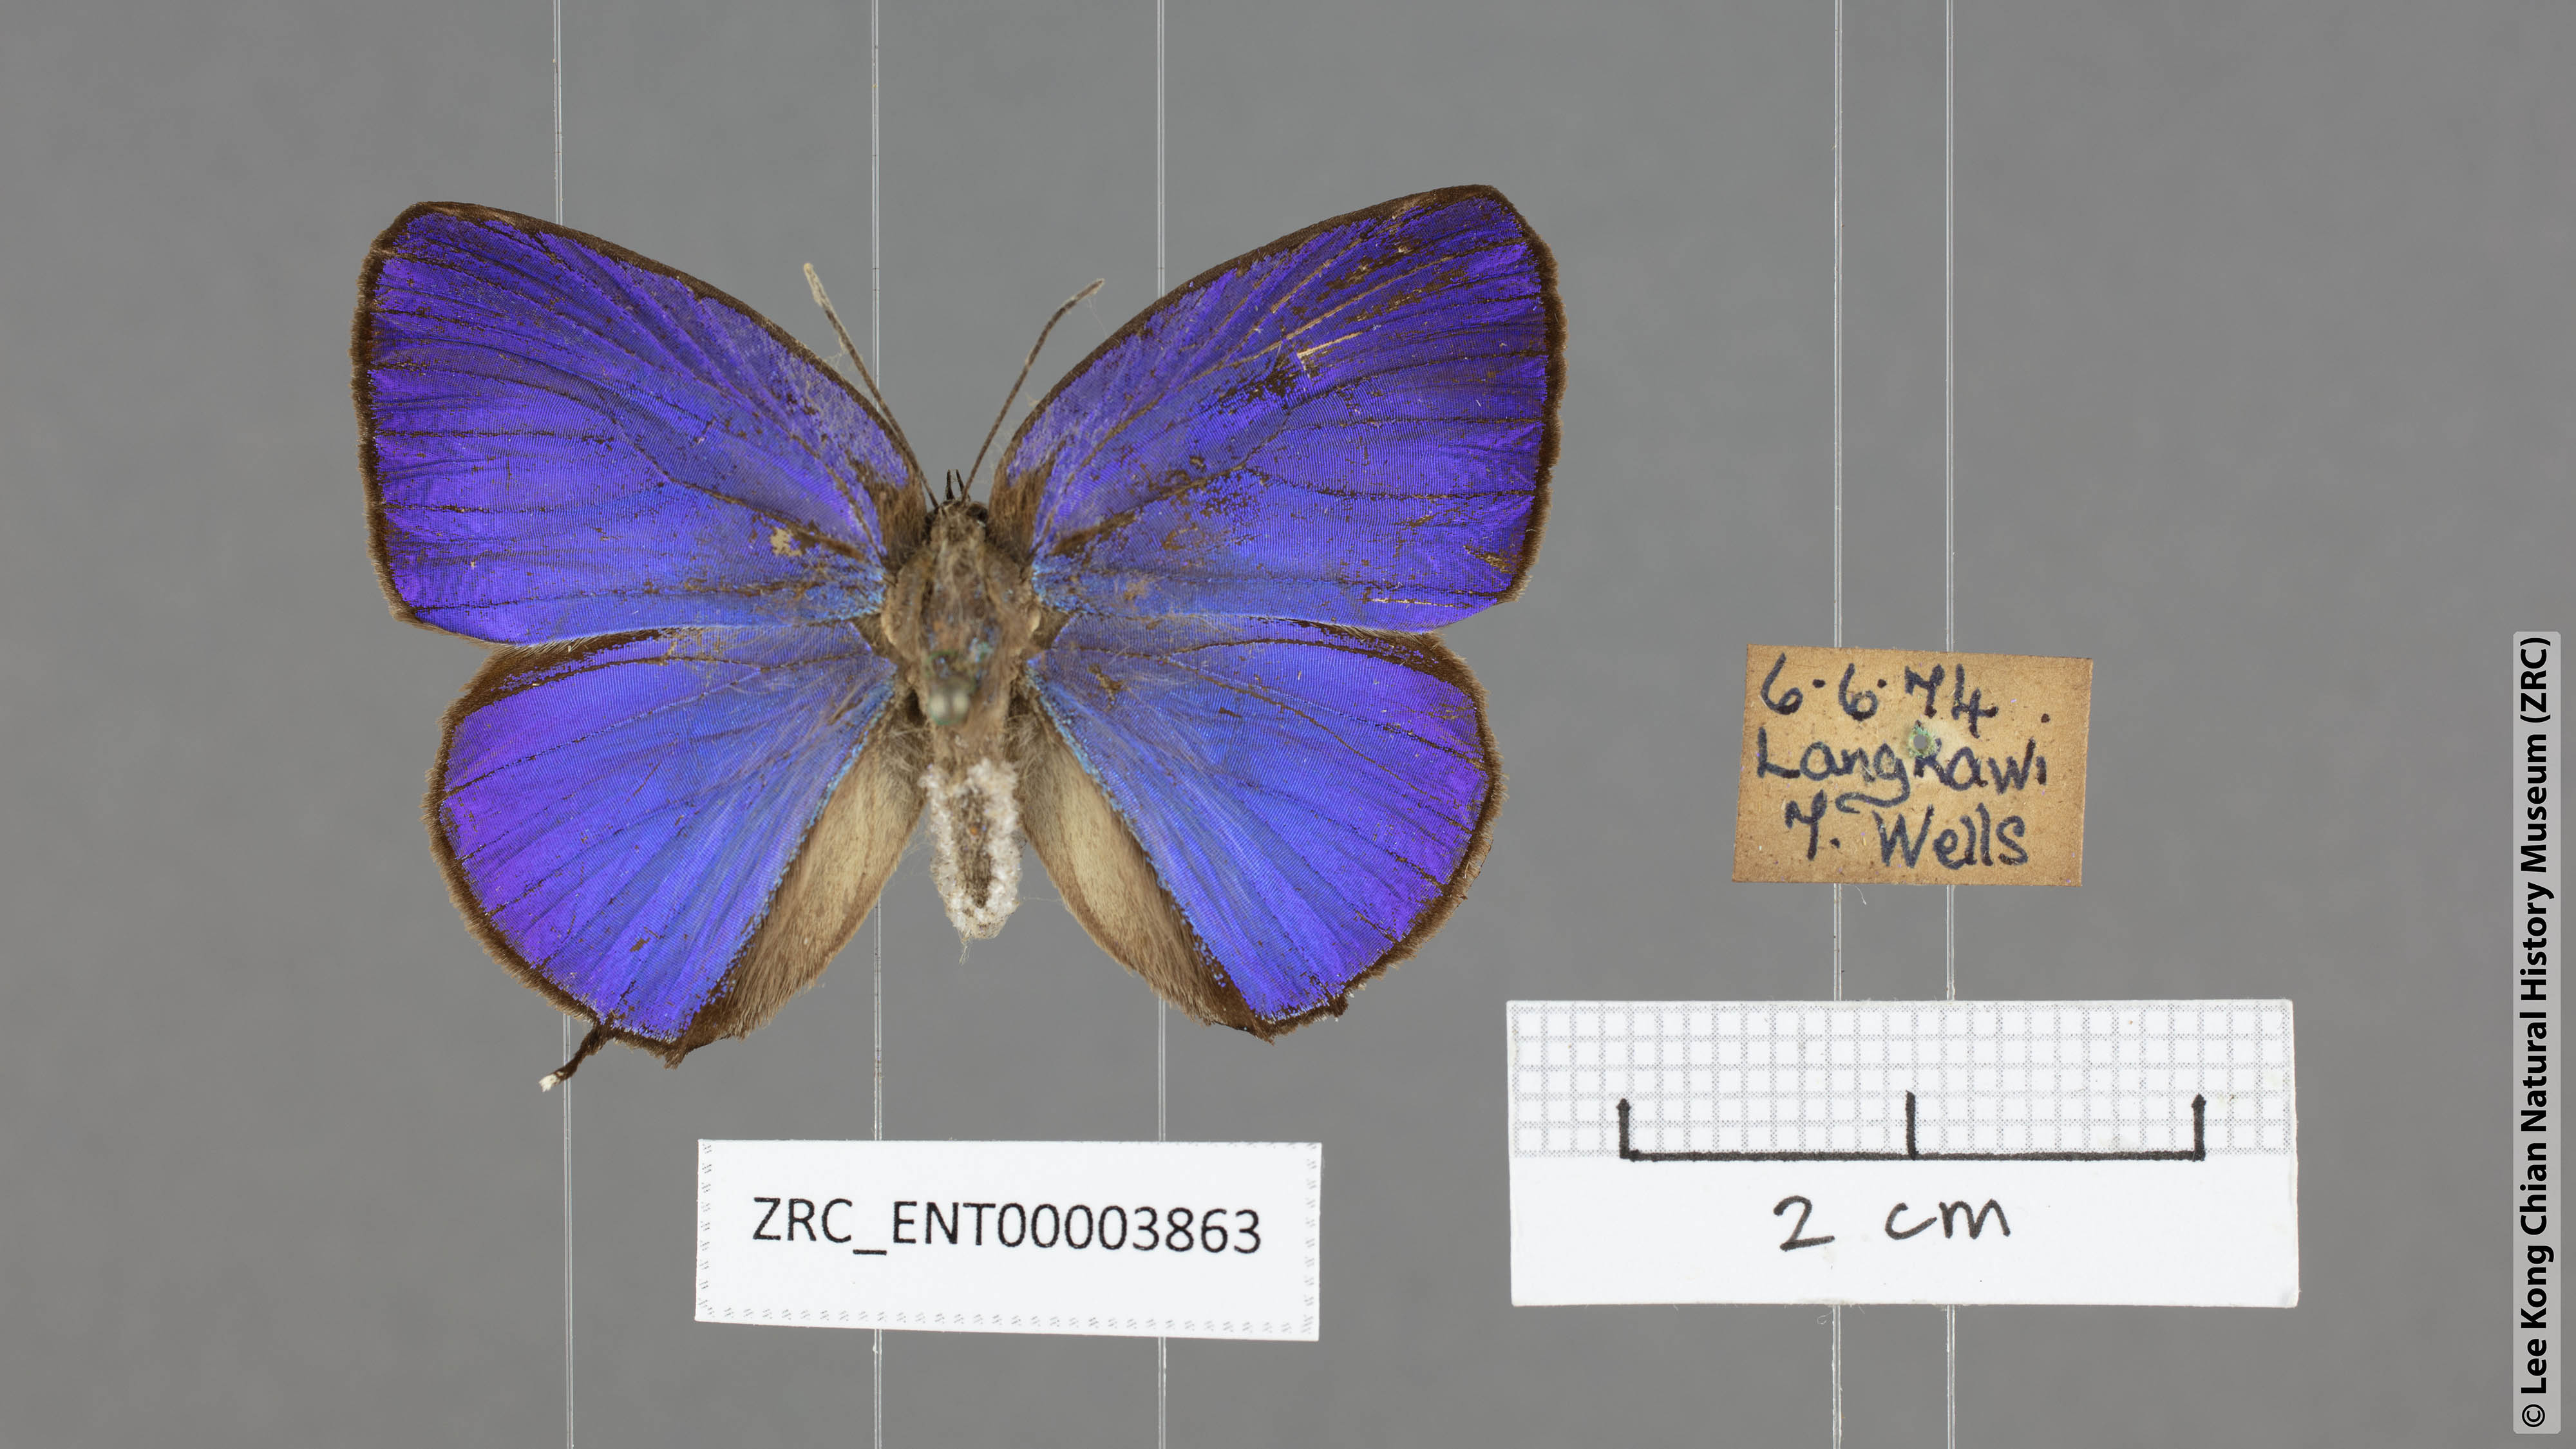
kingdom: Animalia
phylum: Arthropoda
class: Insecta
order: Lepidoptera
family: Lycaenidae
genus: Arhopala
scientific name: Arhopala atosia
